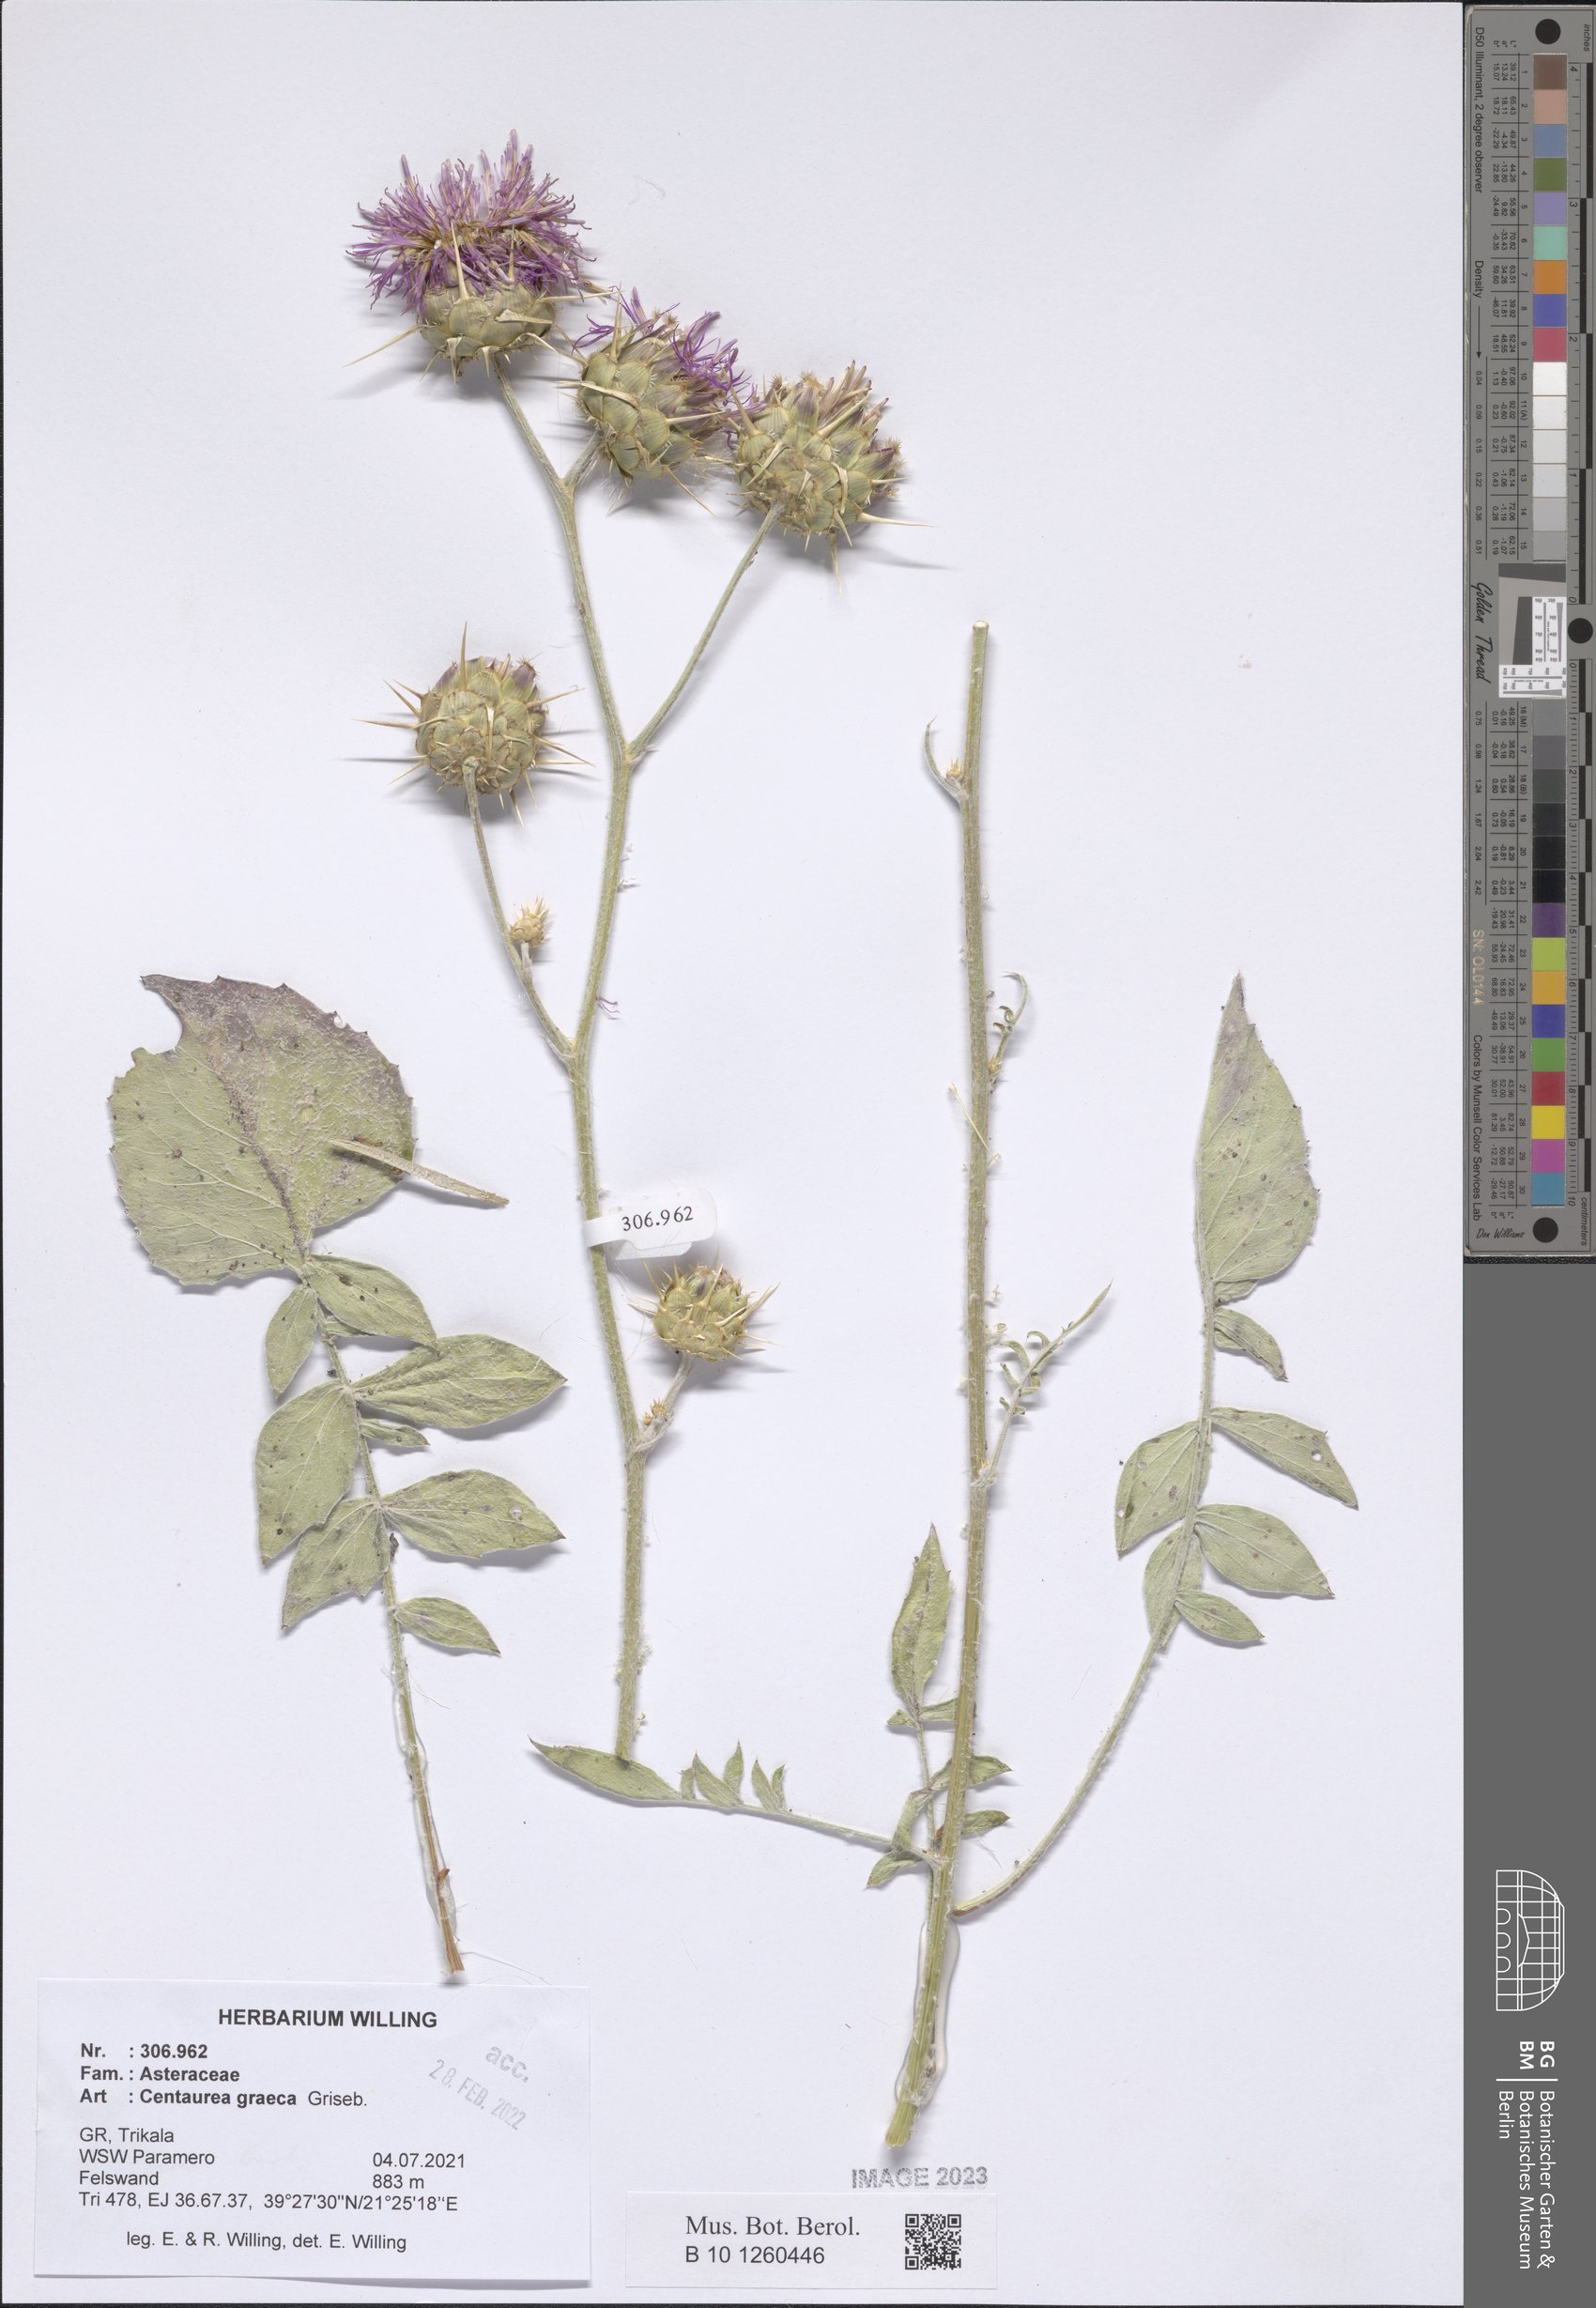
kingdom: Plantae
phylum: Tracheophyta
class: Magnoliopsida
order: Asterales
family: Asteraceae
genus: Centaurea
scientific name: Centaurea graeca
